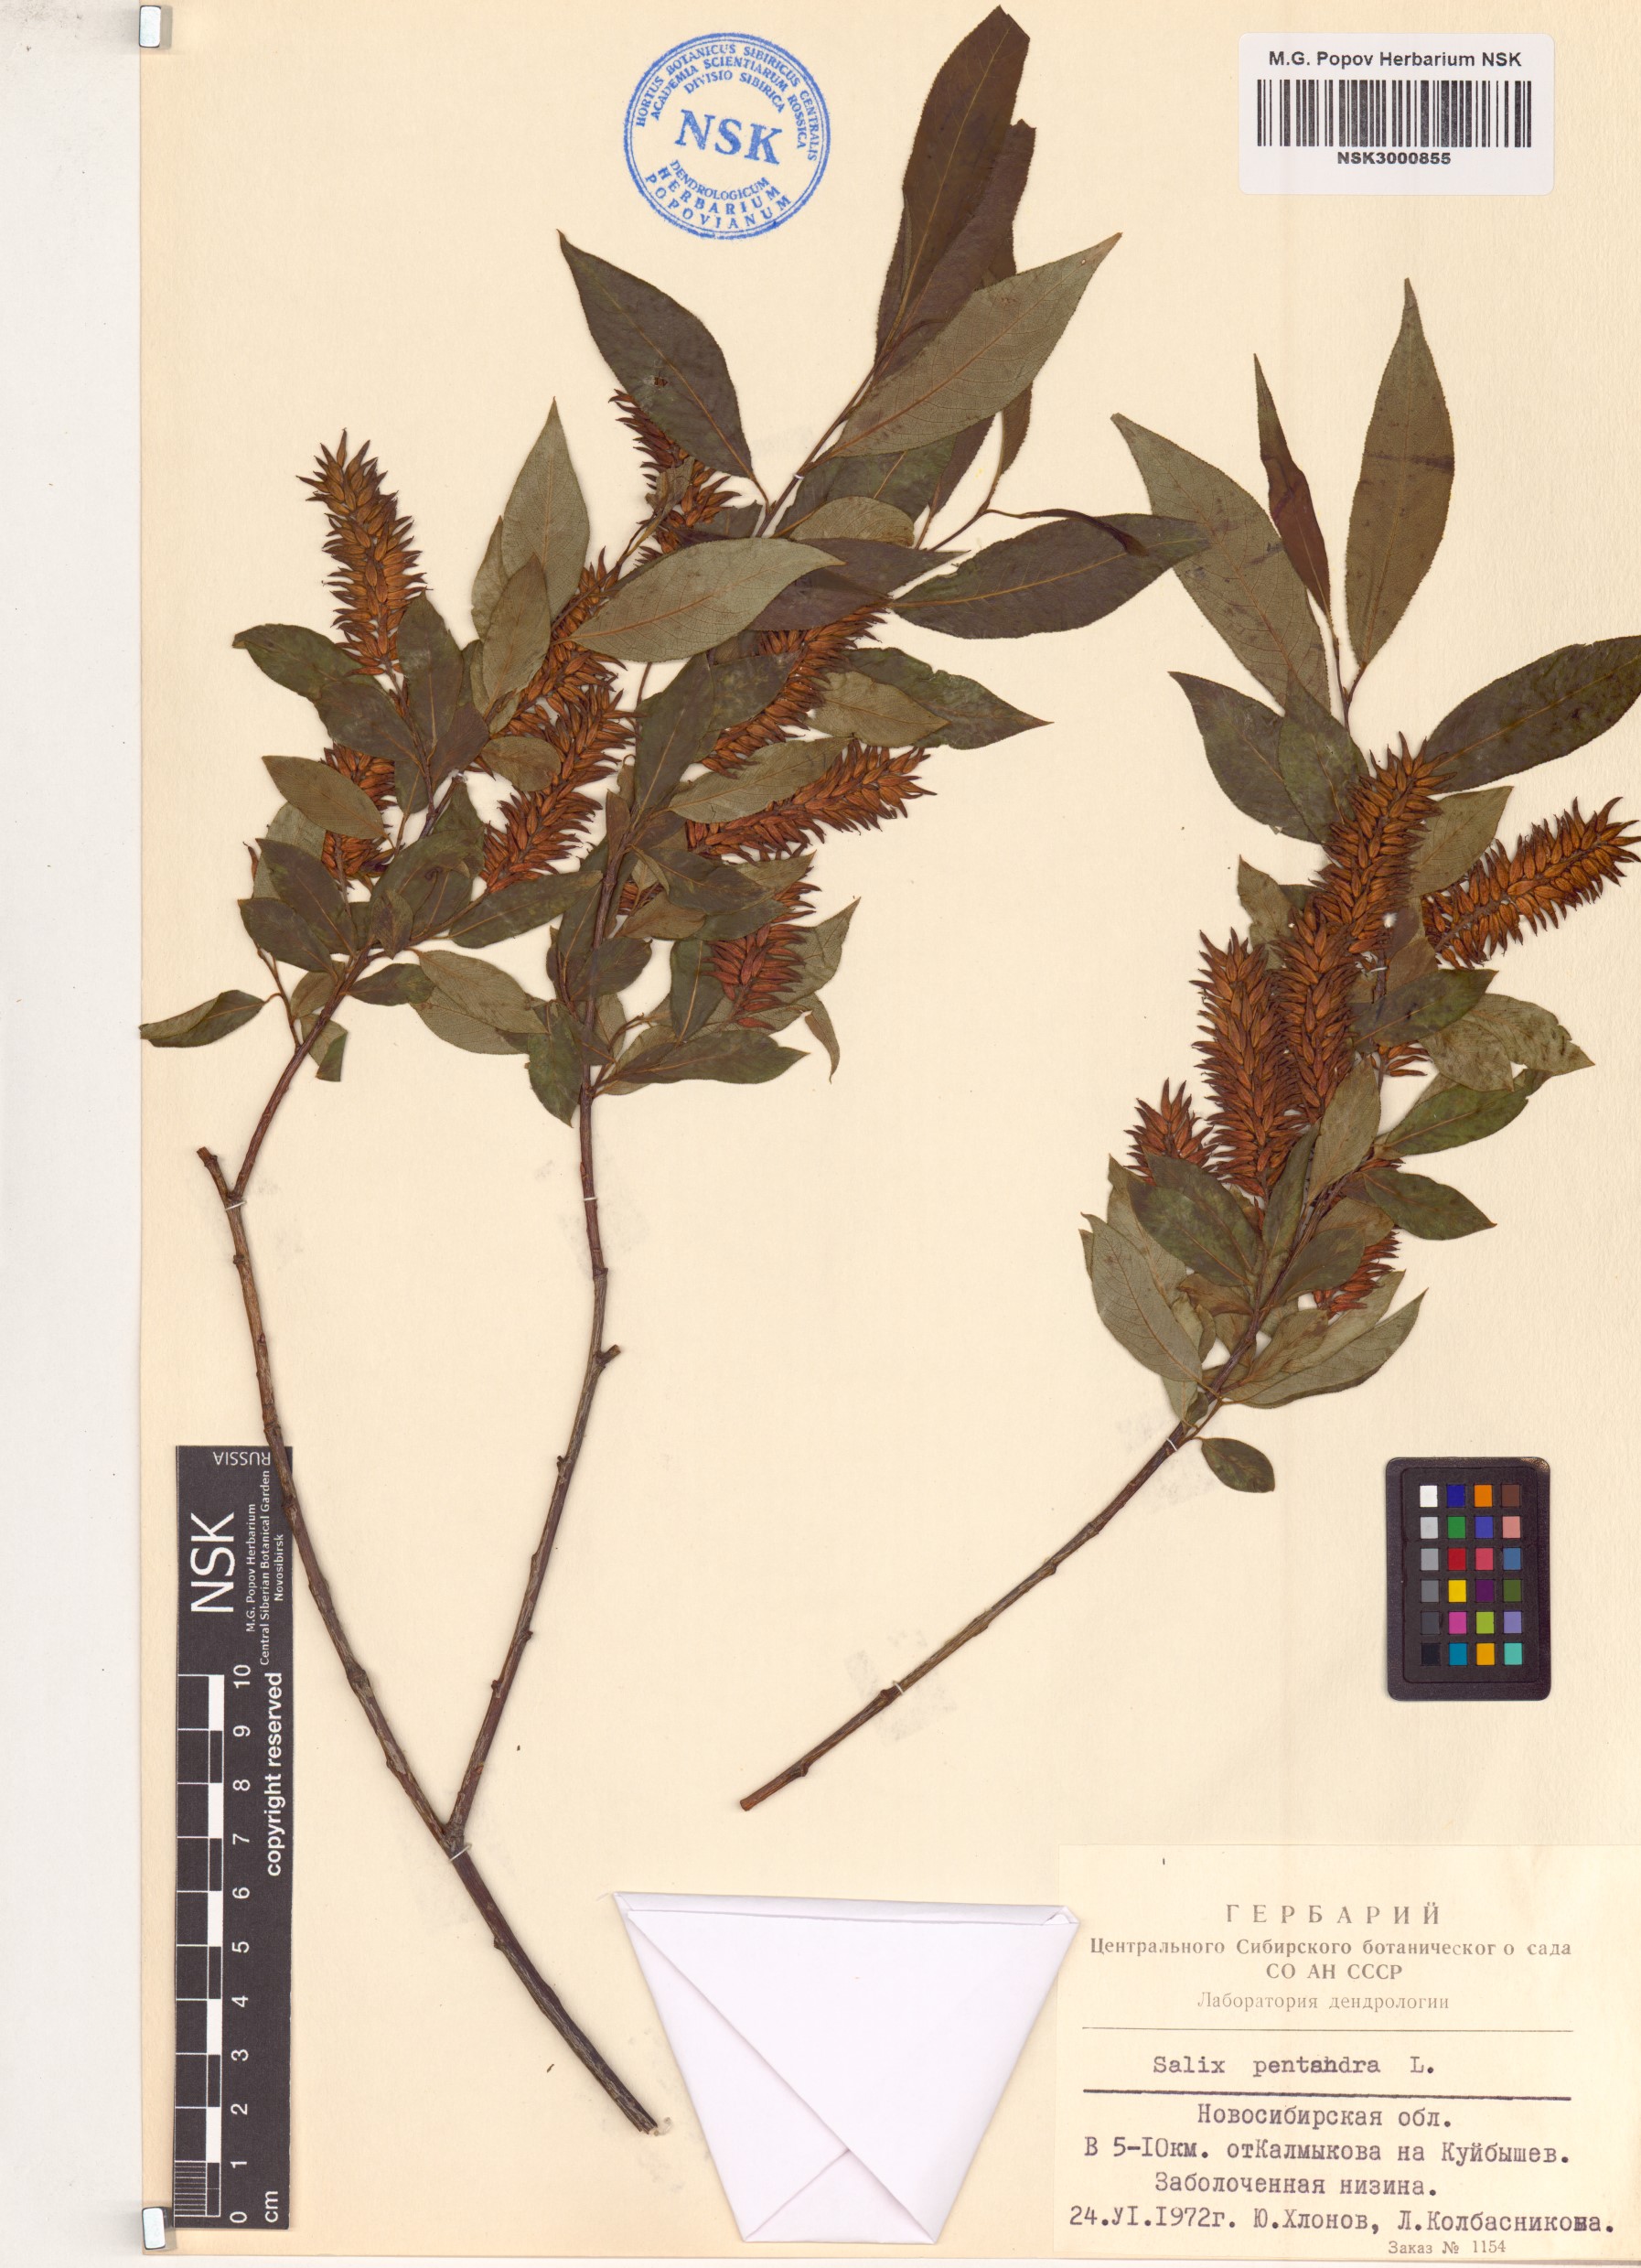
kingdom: Plantae
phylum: Tracheophyta
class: Magnoliopsida
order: Malpighiales
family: Salicaceae
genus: Salix
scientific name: Salix pentandra
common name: Bay willow
